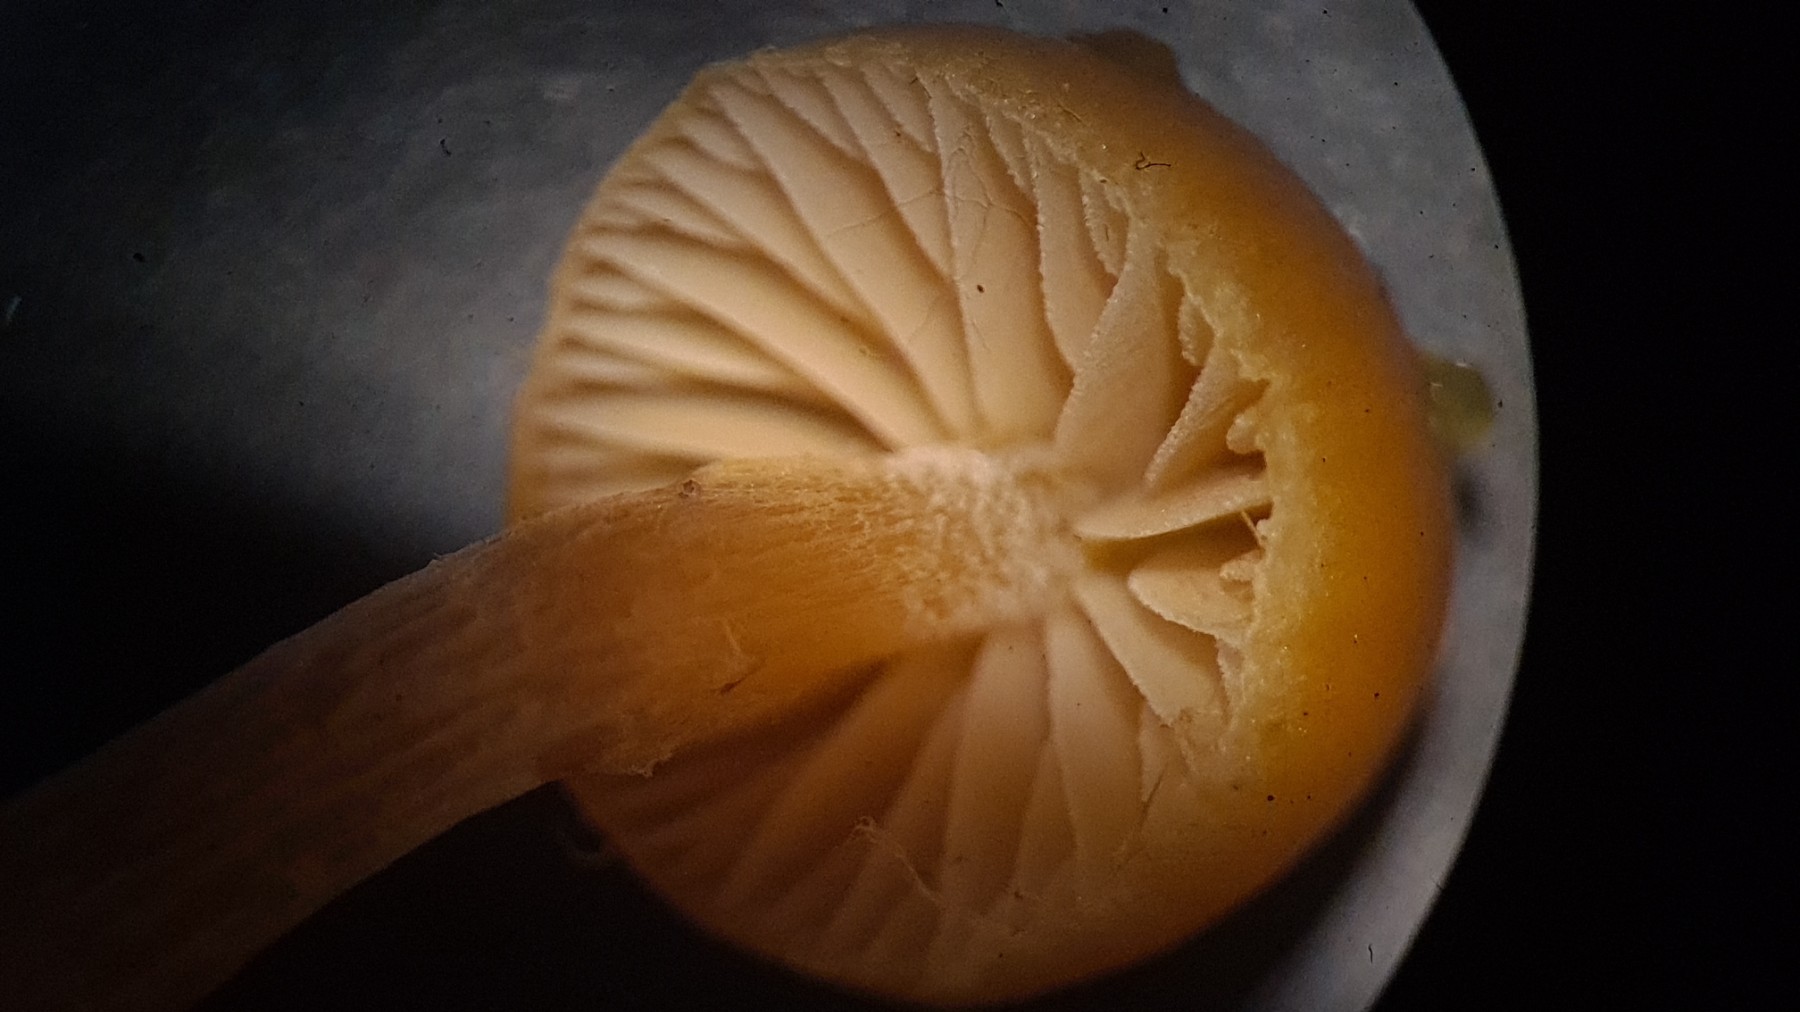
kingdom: Fungi
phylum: Basidiomycota
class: Agaricomycetes
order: Agaricales
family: Hymenogastraceae
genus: Galerina
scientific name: Galerina
